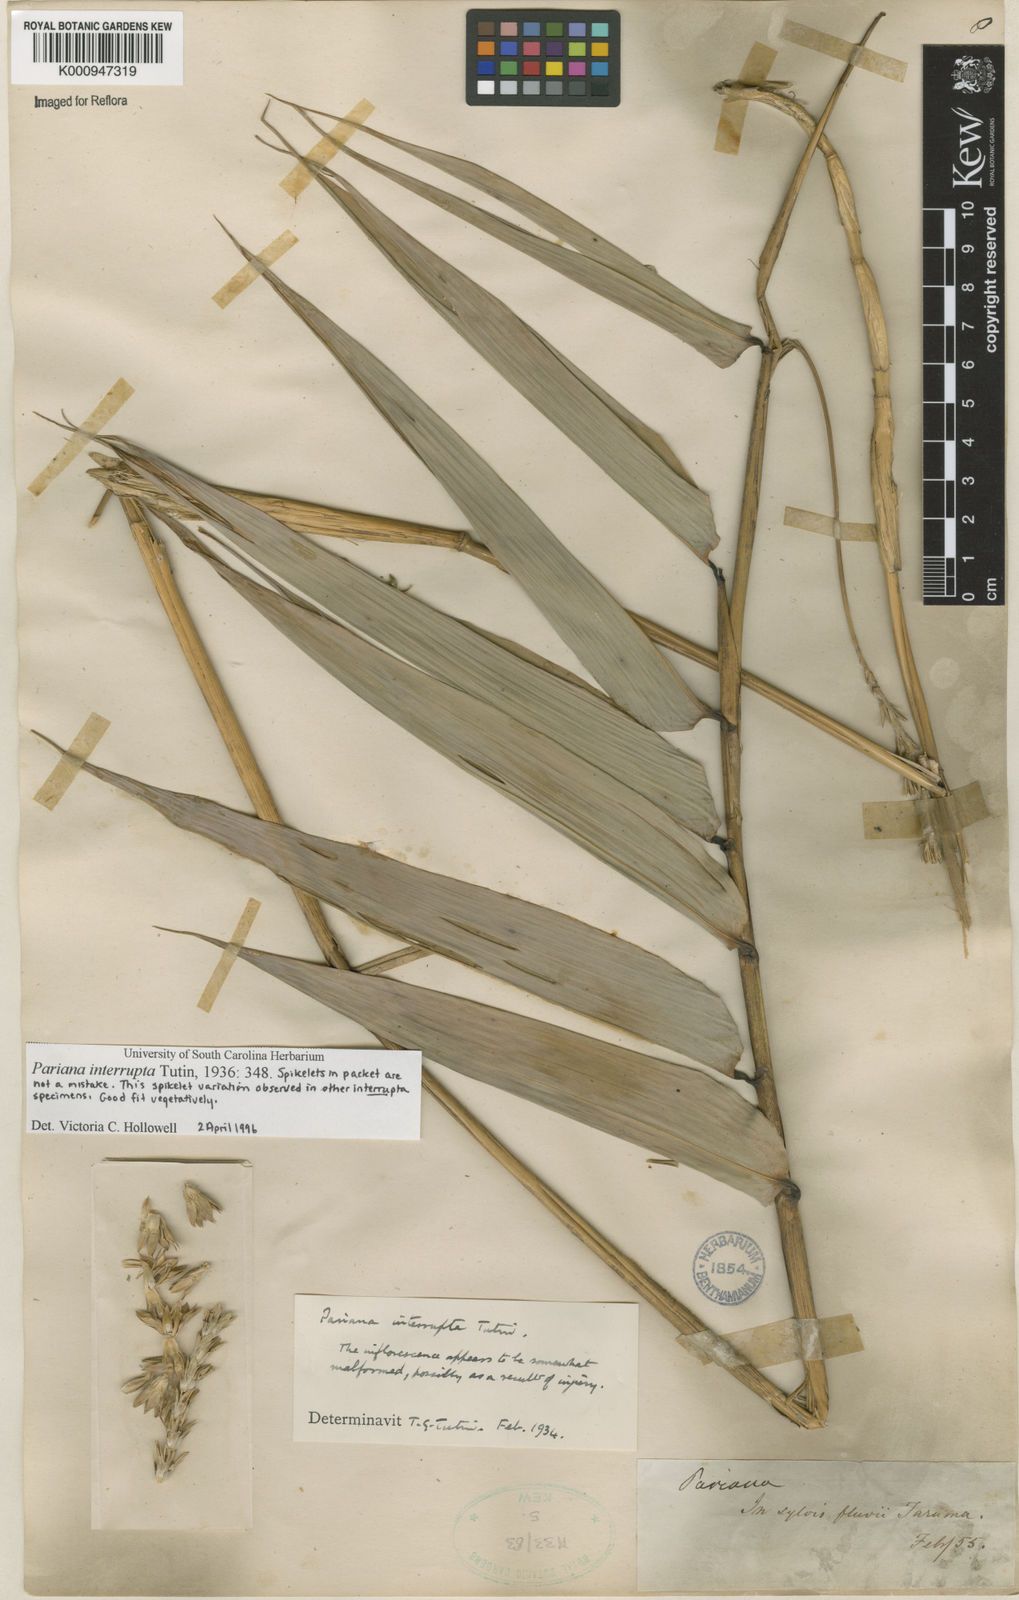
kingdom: Plantae
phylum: Tracheophyta
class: Liliopsida
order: Poales
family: Poaceae
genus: Pariana
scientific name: Pariana interrupta
